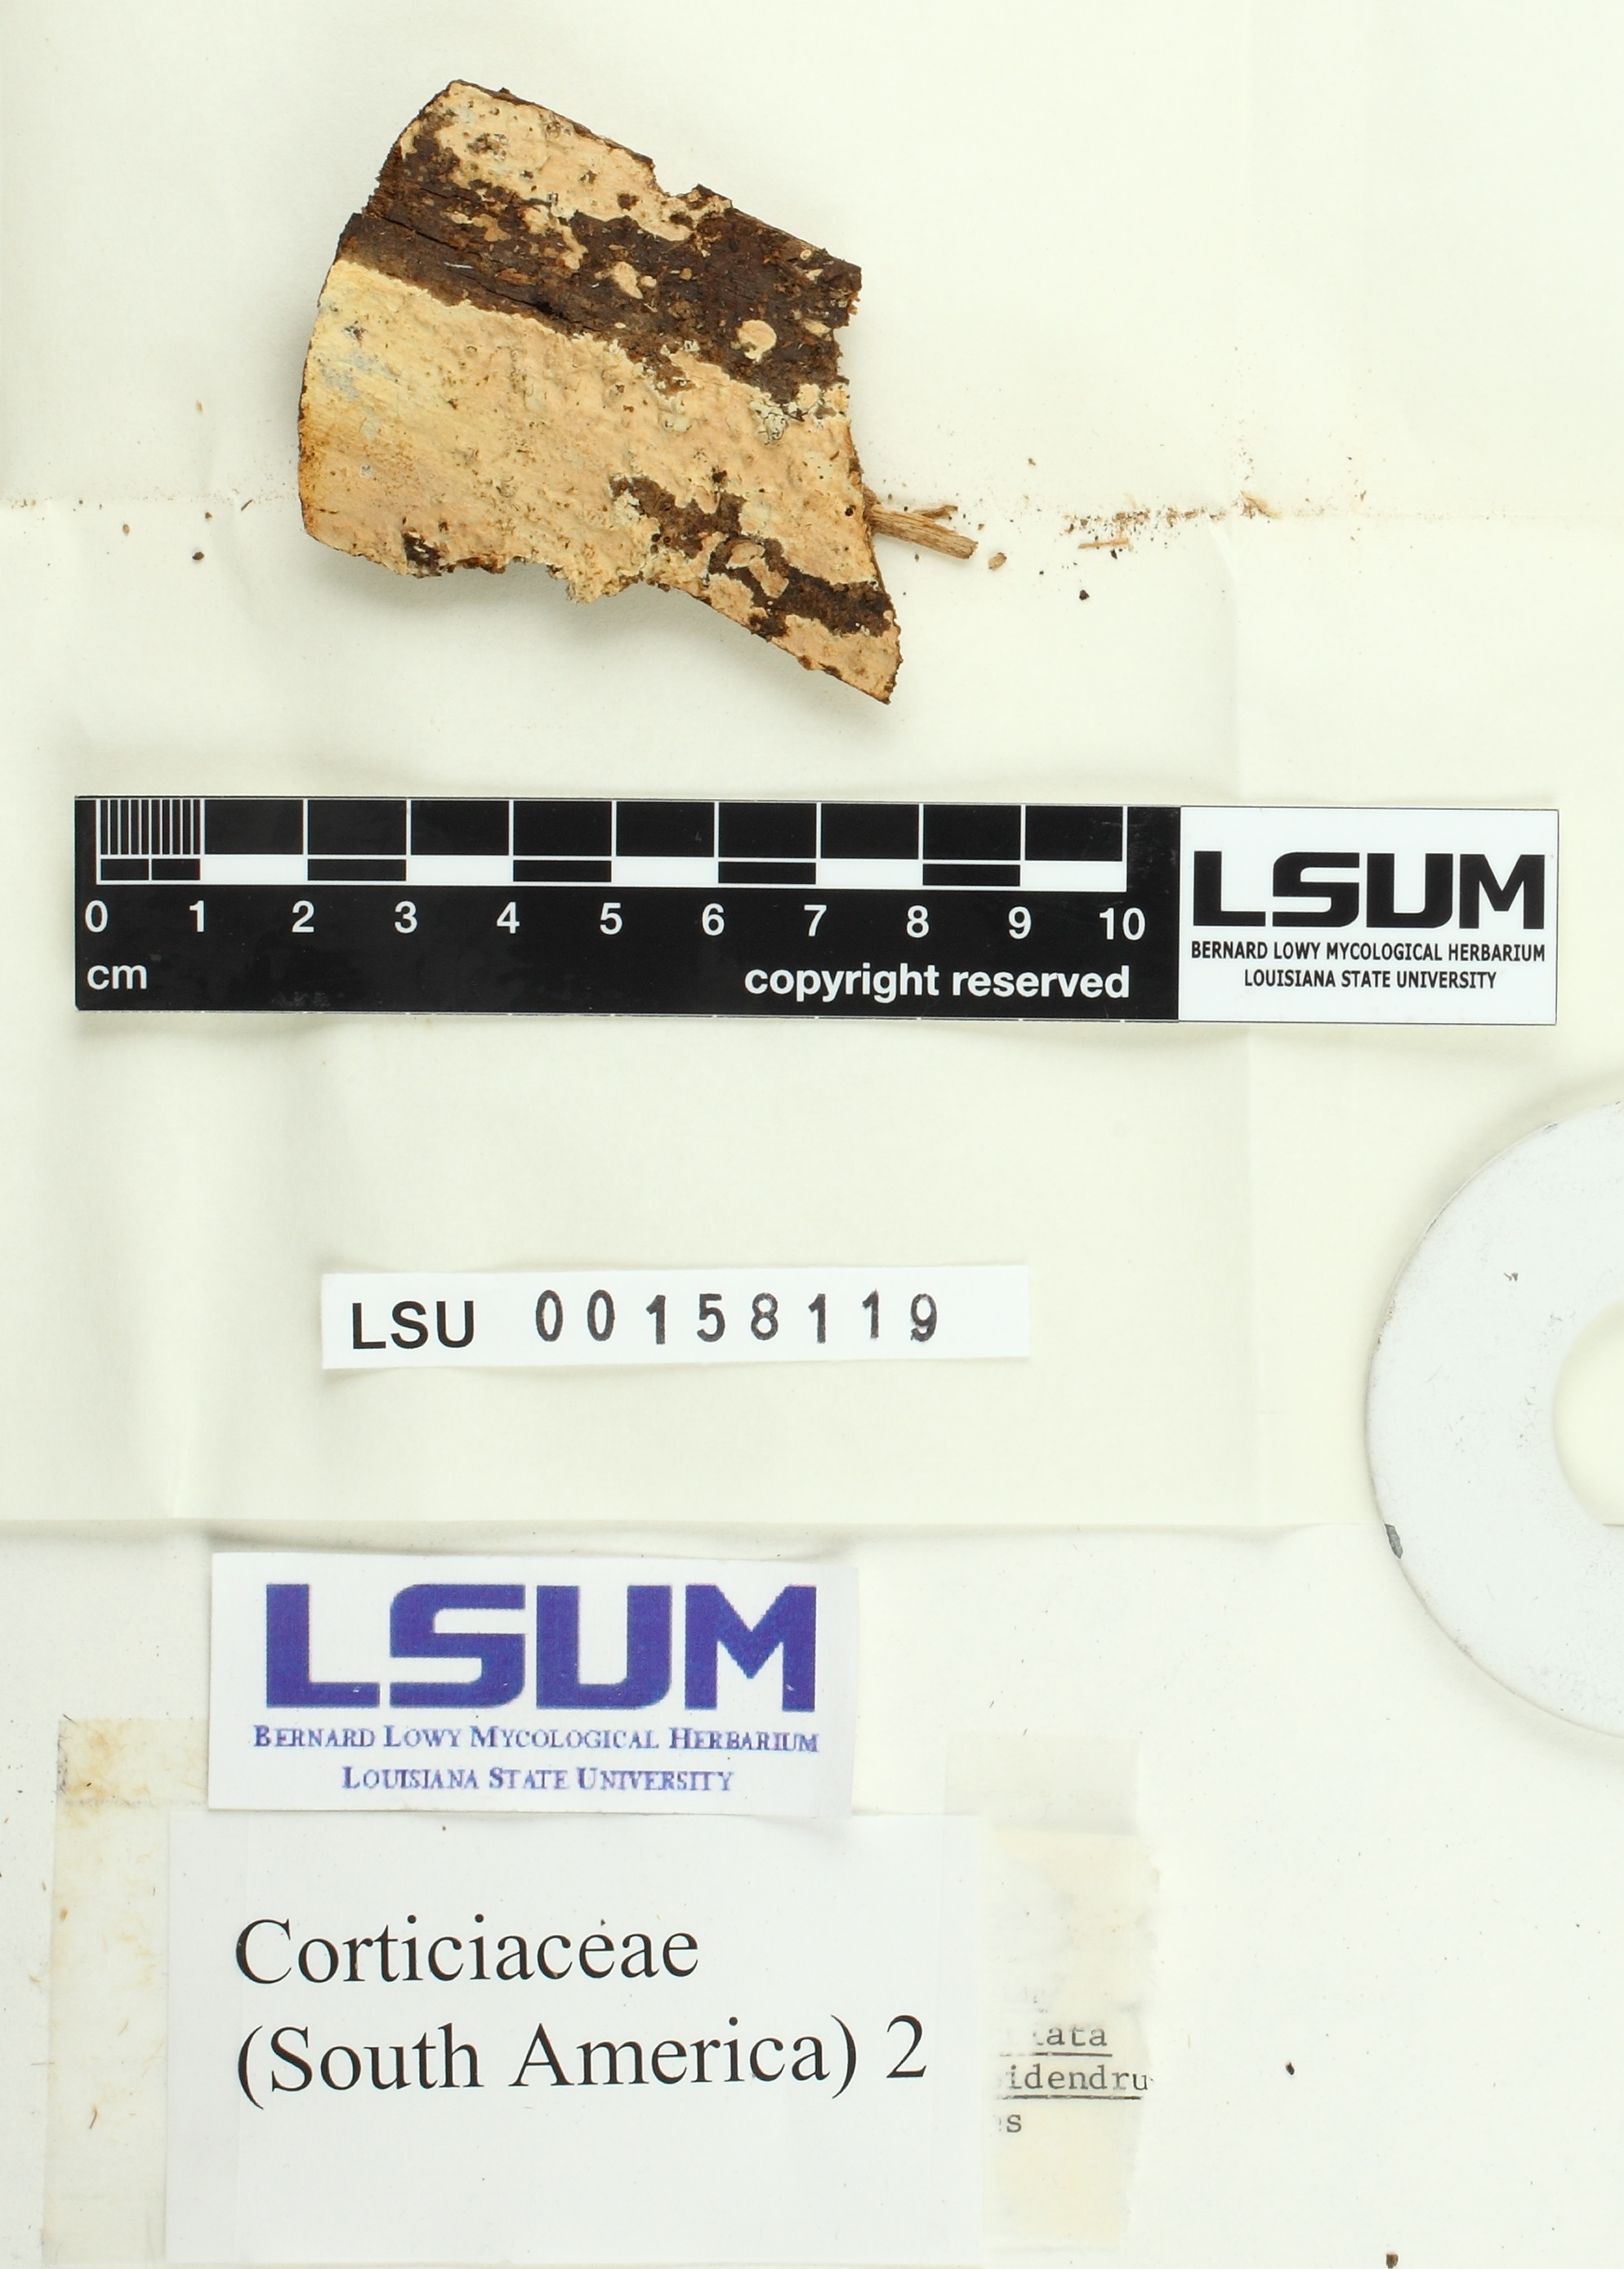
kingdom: Fungi
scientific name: Fungi
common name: Fungi
